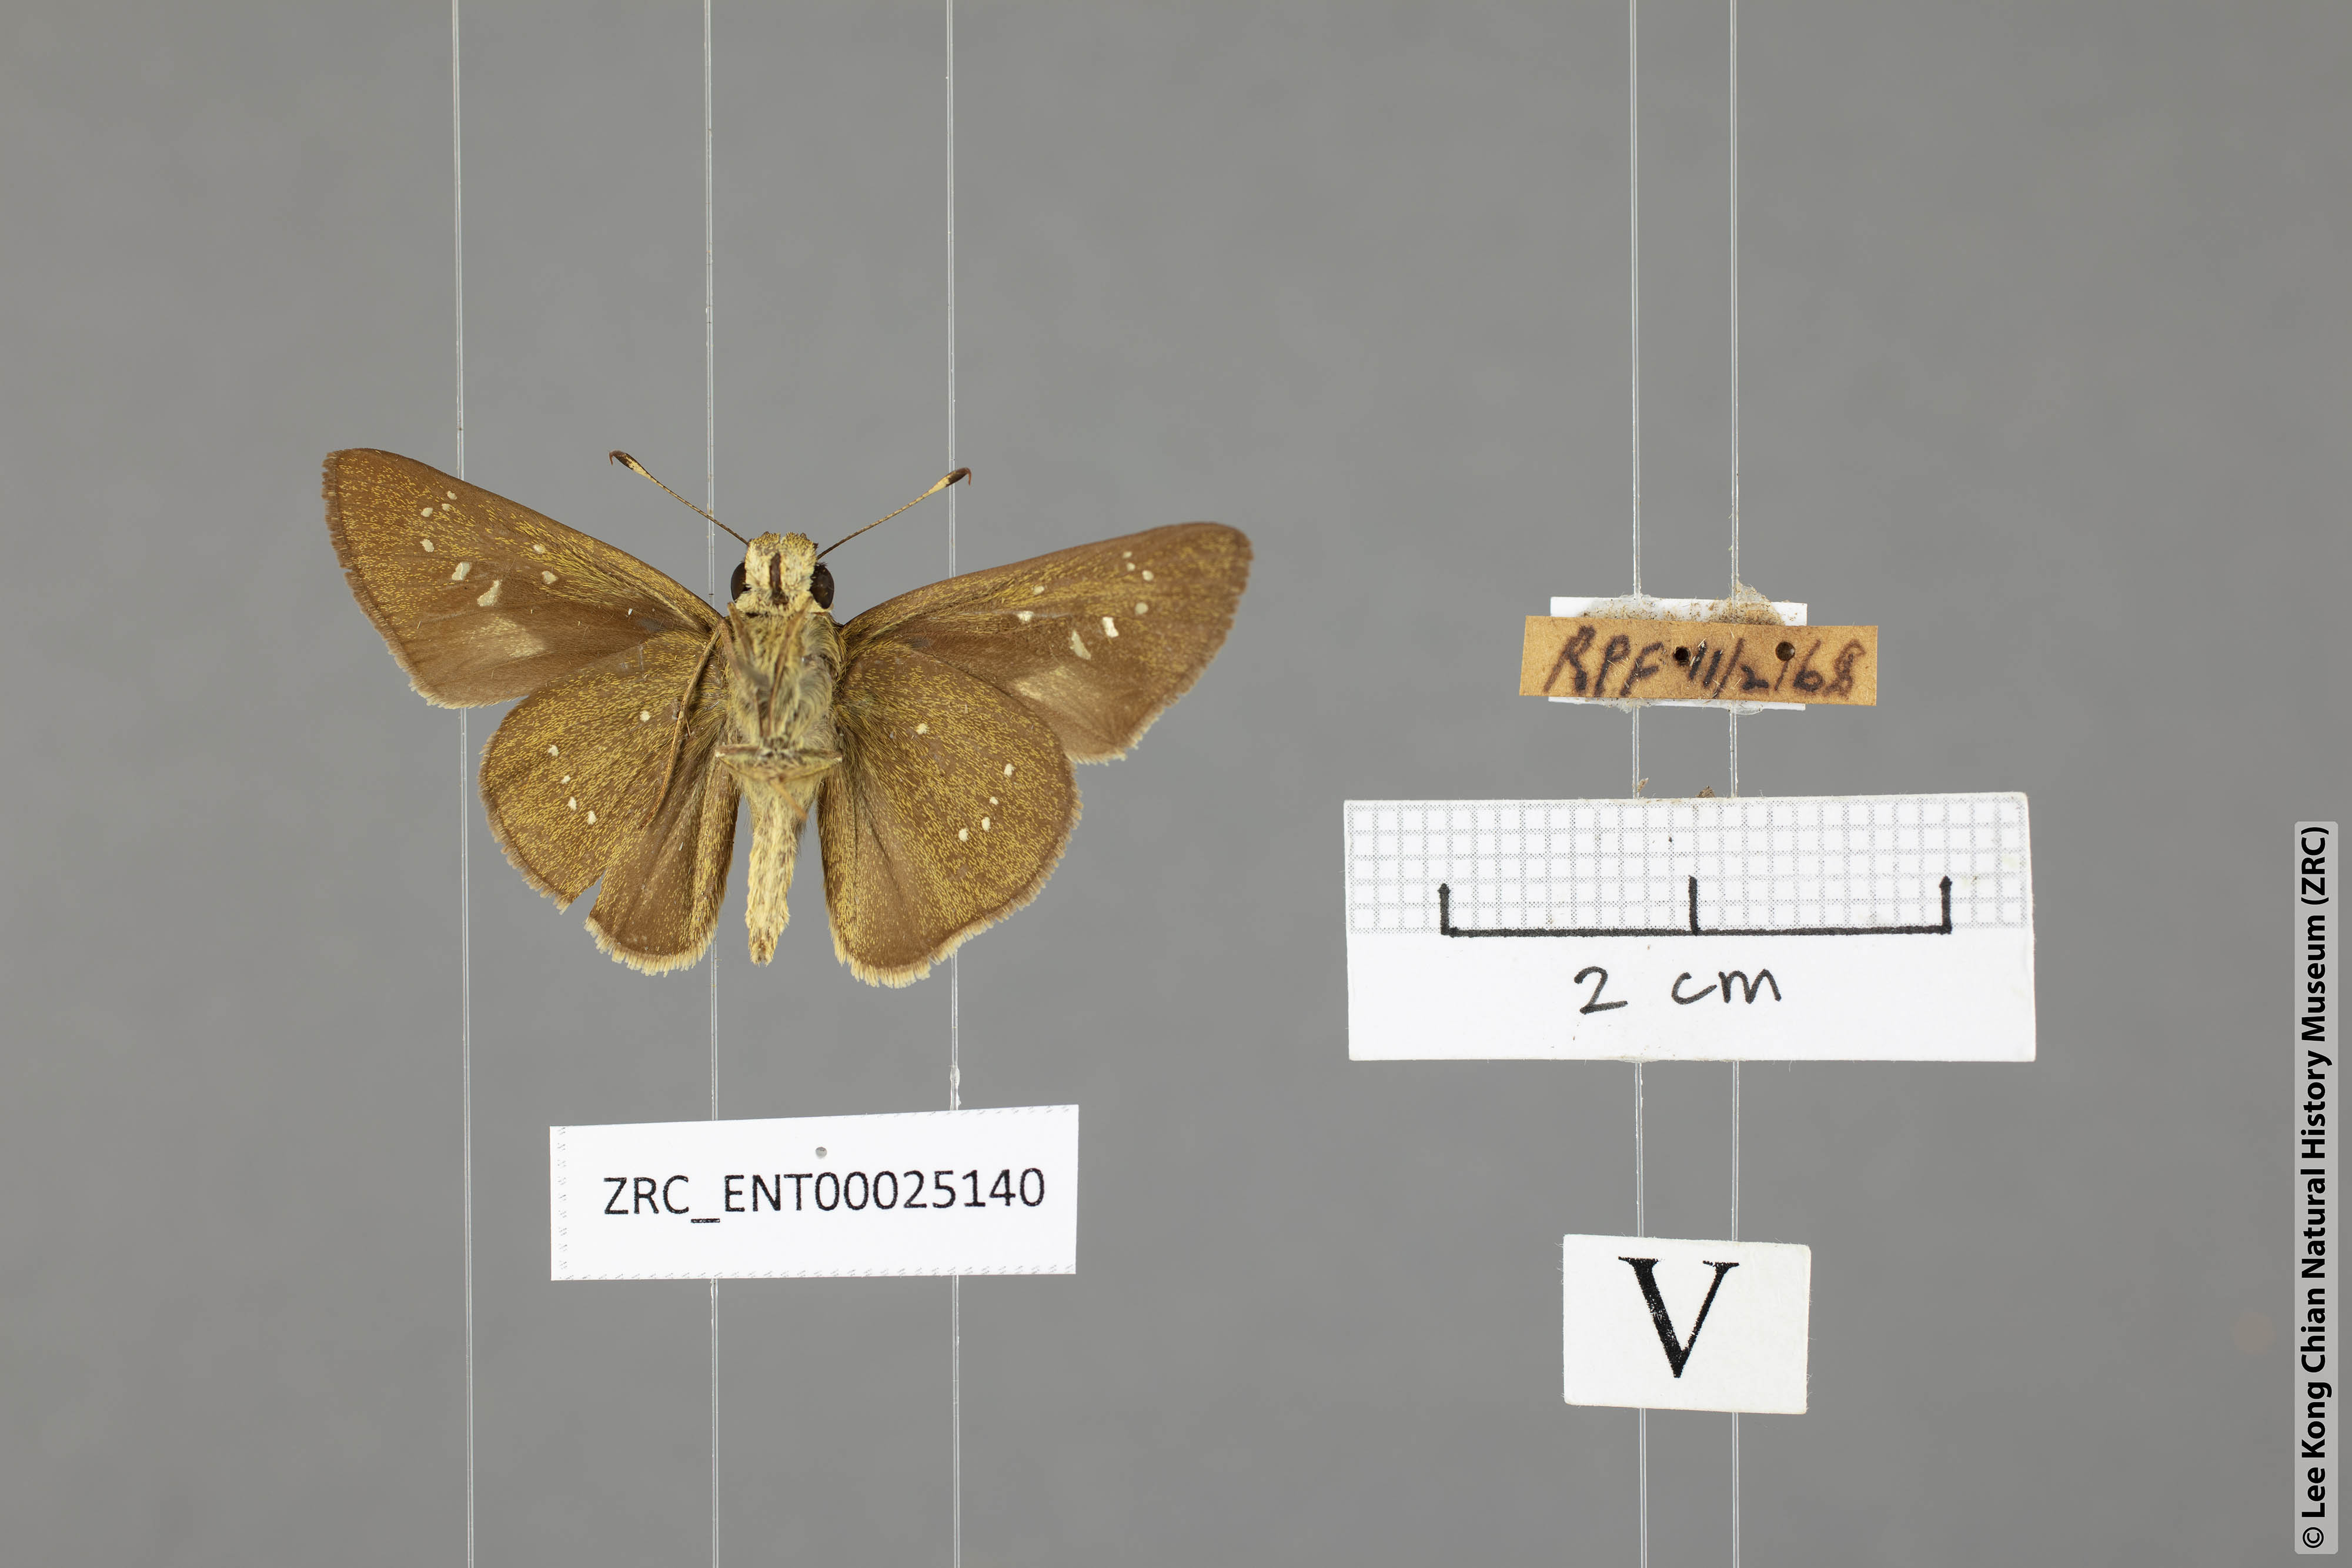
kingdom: Animalia
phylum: Arthropoda
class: Insecta
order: Lepidoptera
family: Hesperiidae
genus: Pelopidas
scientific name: Pelopidas agna
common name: Little branded swift
